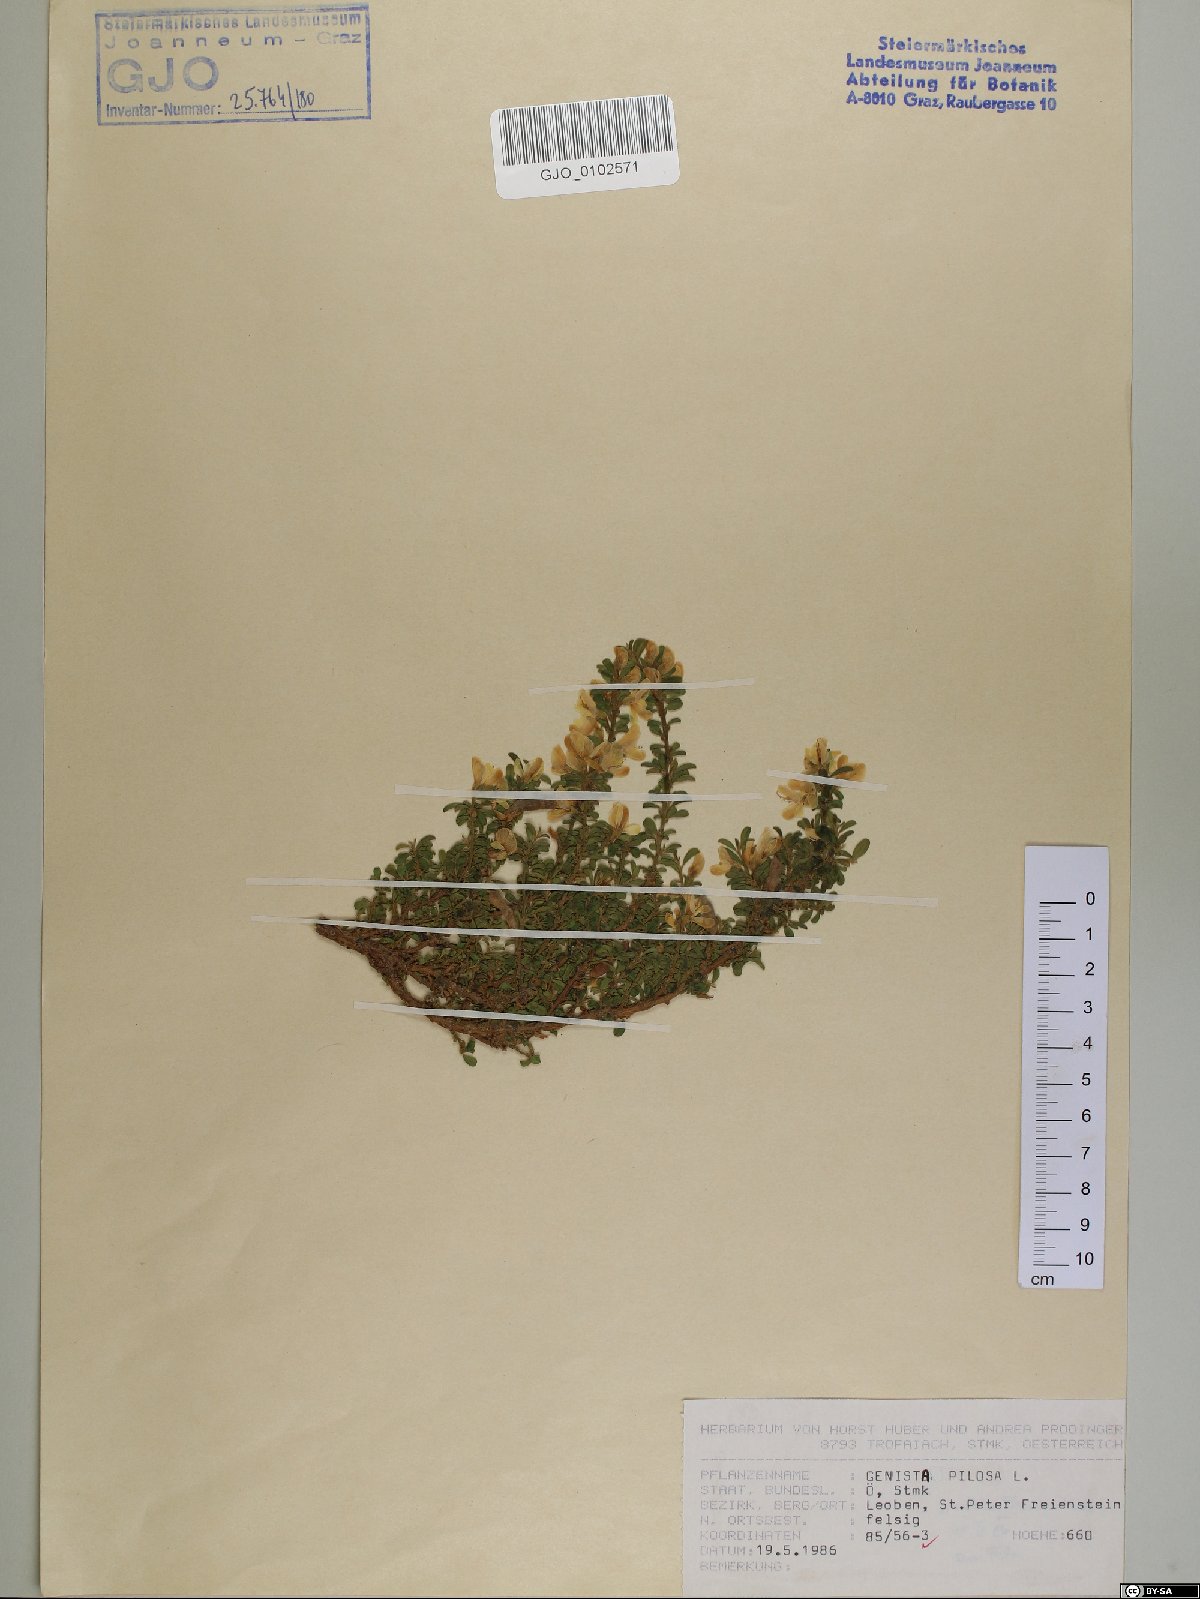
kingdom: Plantae
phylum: Tracheophyta
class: Magnoliopsida
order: Fabales
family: Fabaceae
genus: Genista
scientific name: Genista pilosa
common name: Hairy greenweed
